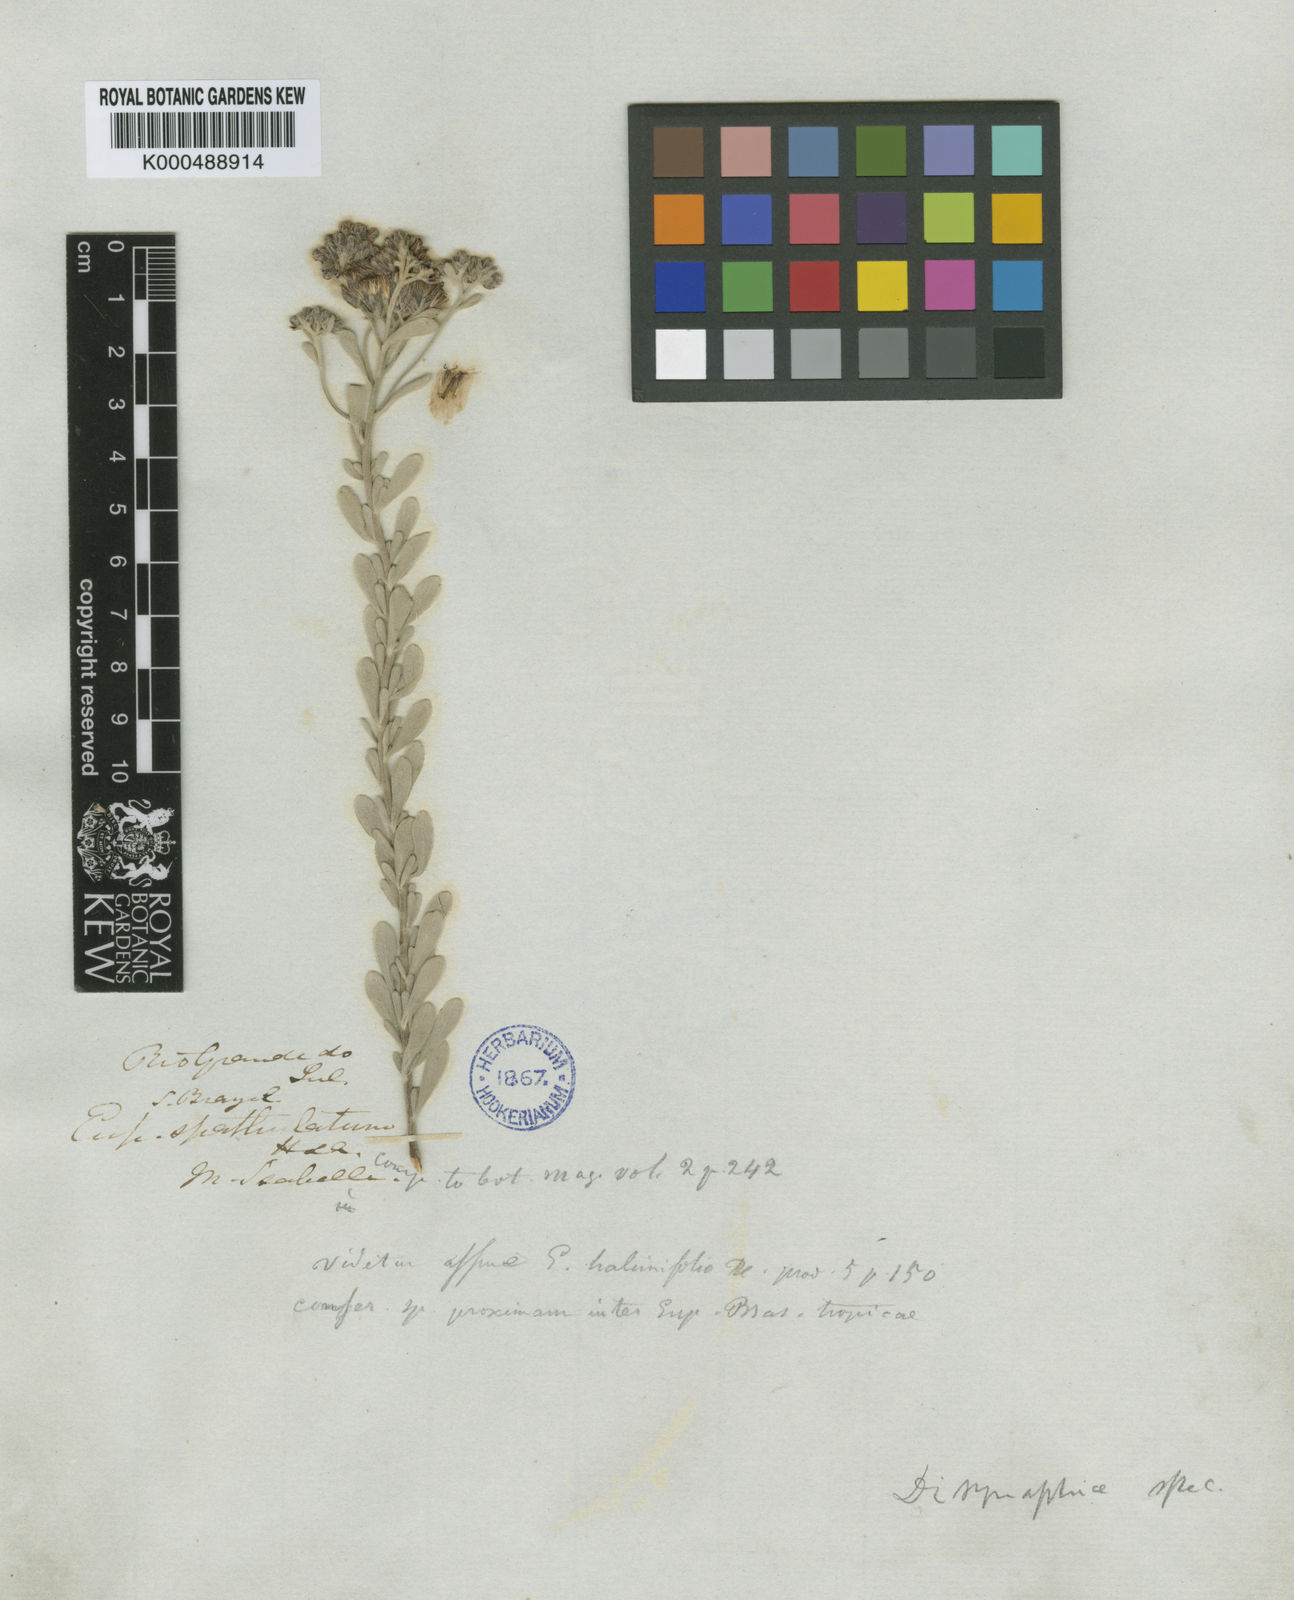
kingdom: Plantae
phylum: Tracheophyta
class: Magnoliopsida
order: Asterales
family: Asteraceae
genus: Disynaphia
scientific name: Disynaphia halimifolia
